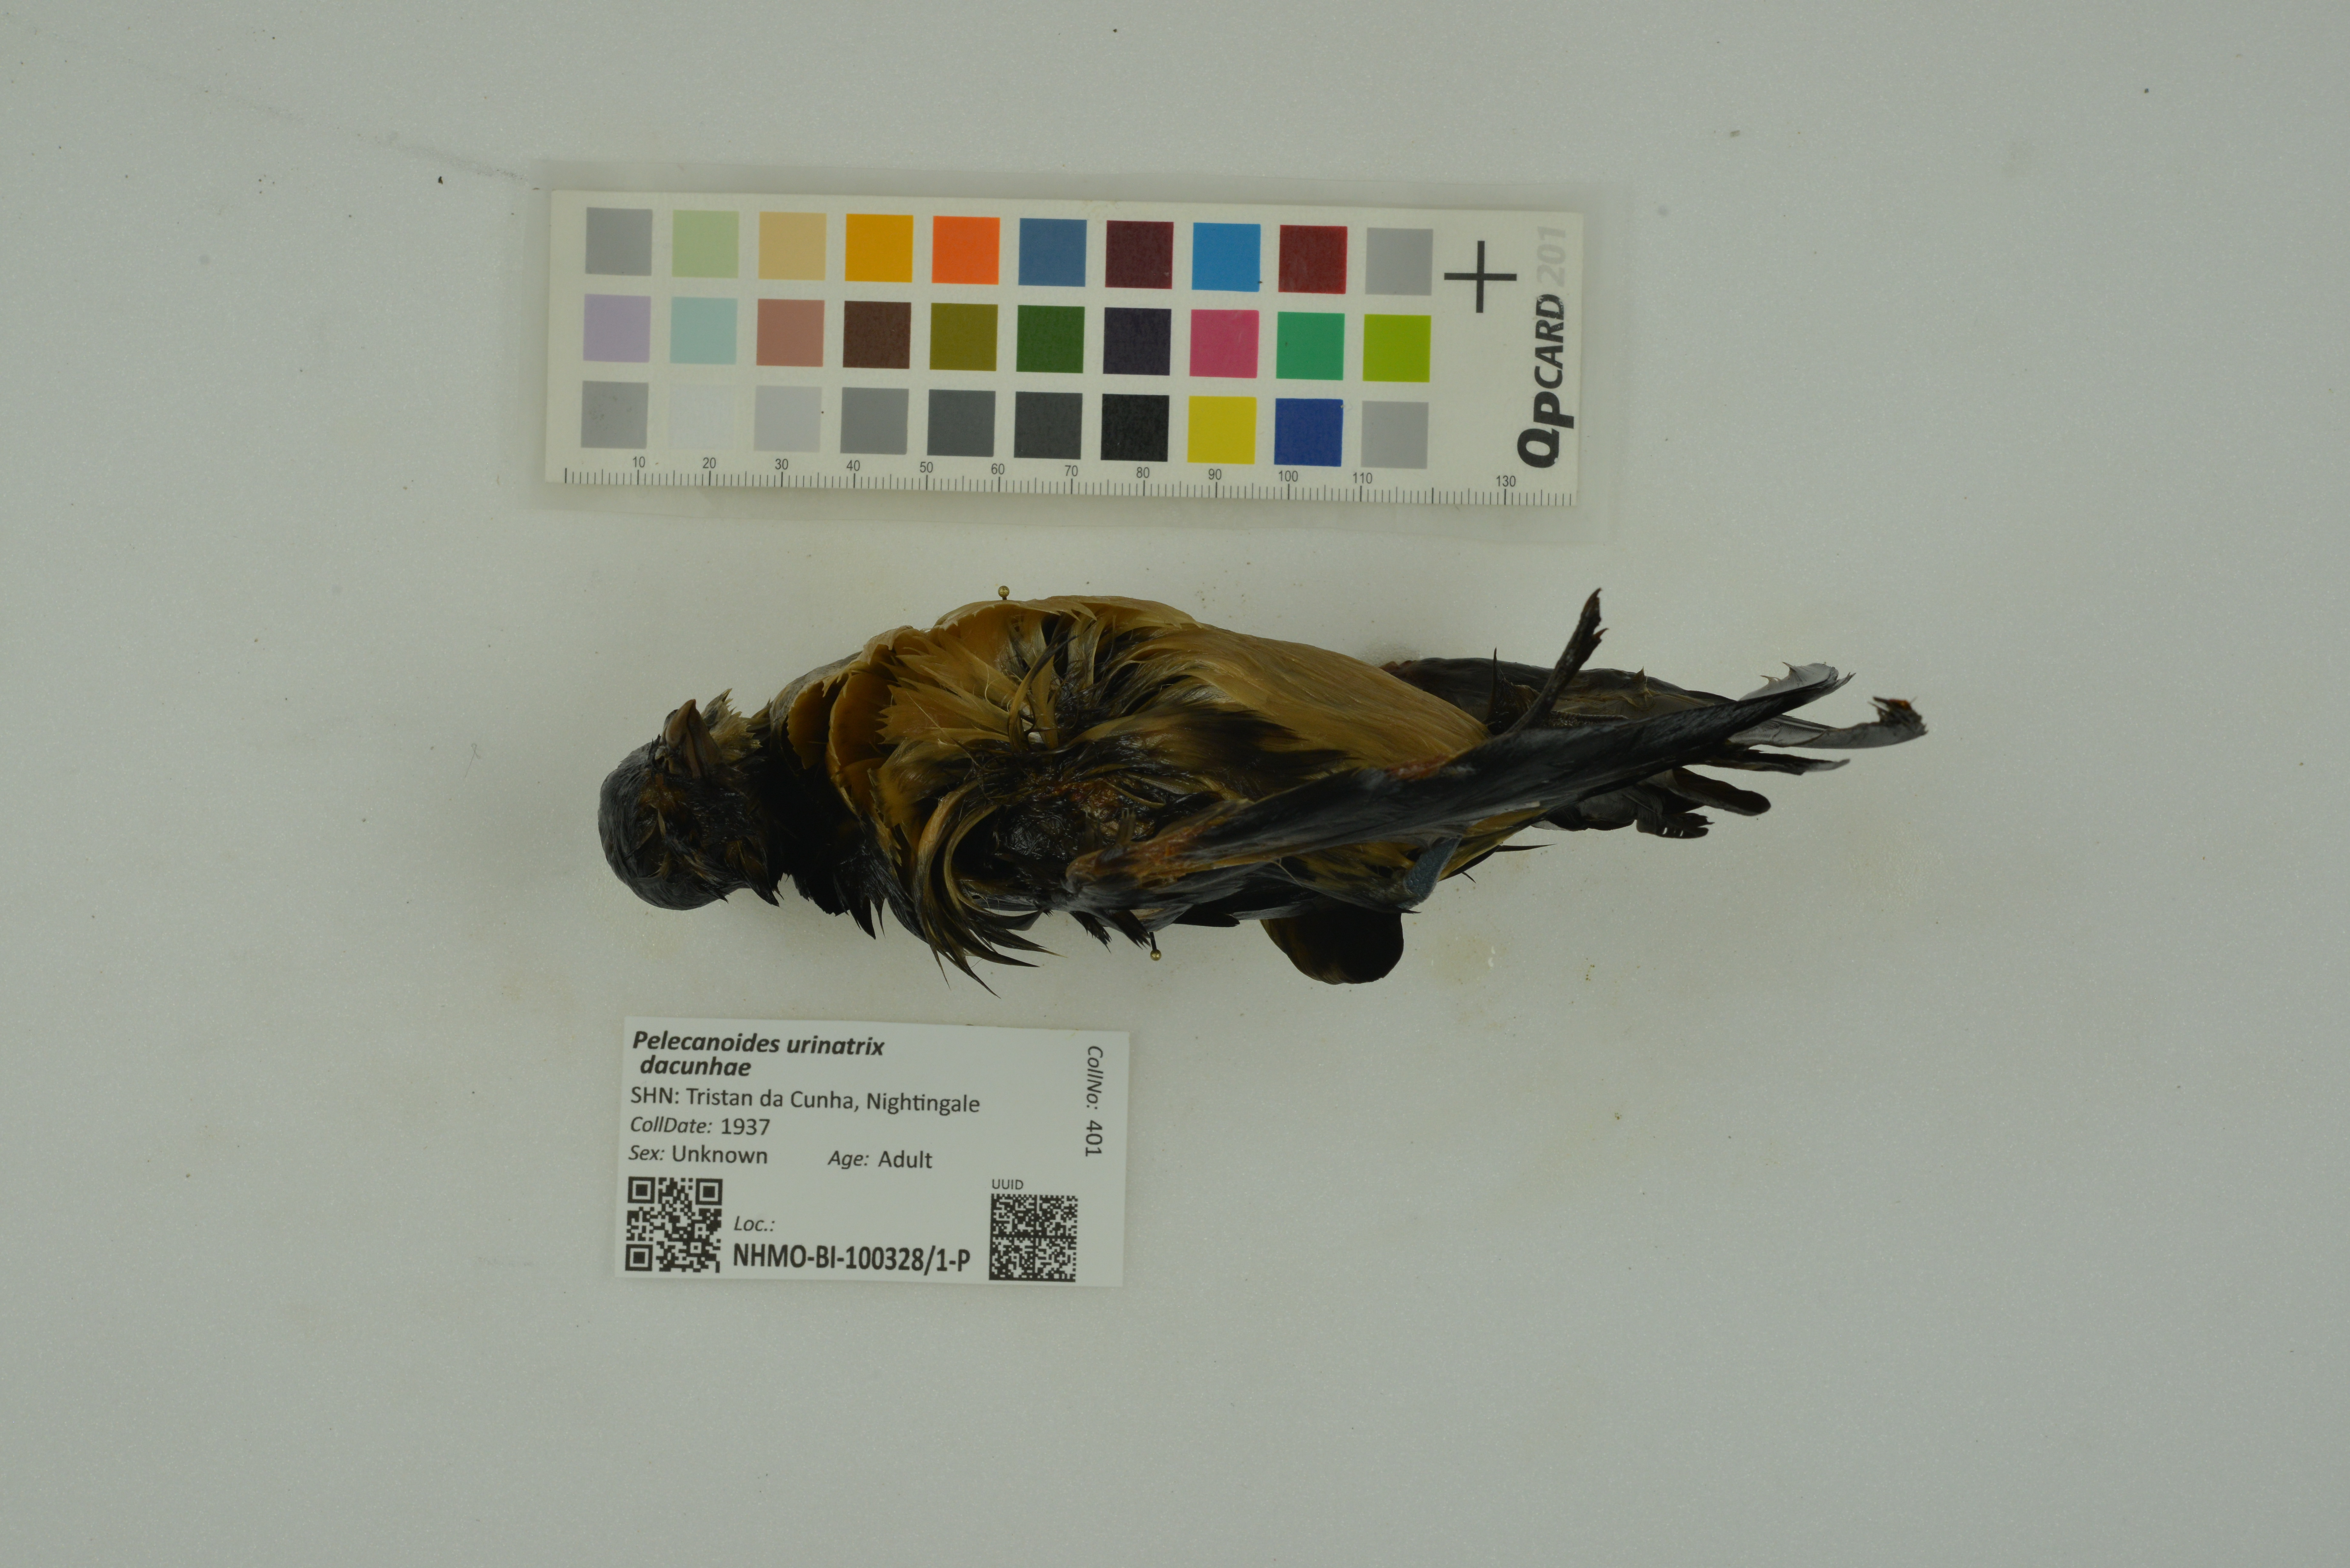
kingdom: Animalia
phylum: Chordata
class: Aves
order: Procellariiformes
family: Pelecanoididae
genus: Pelecanoides
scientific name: Pelecanoides urinatrix
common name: Common diving-petrel
